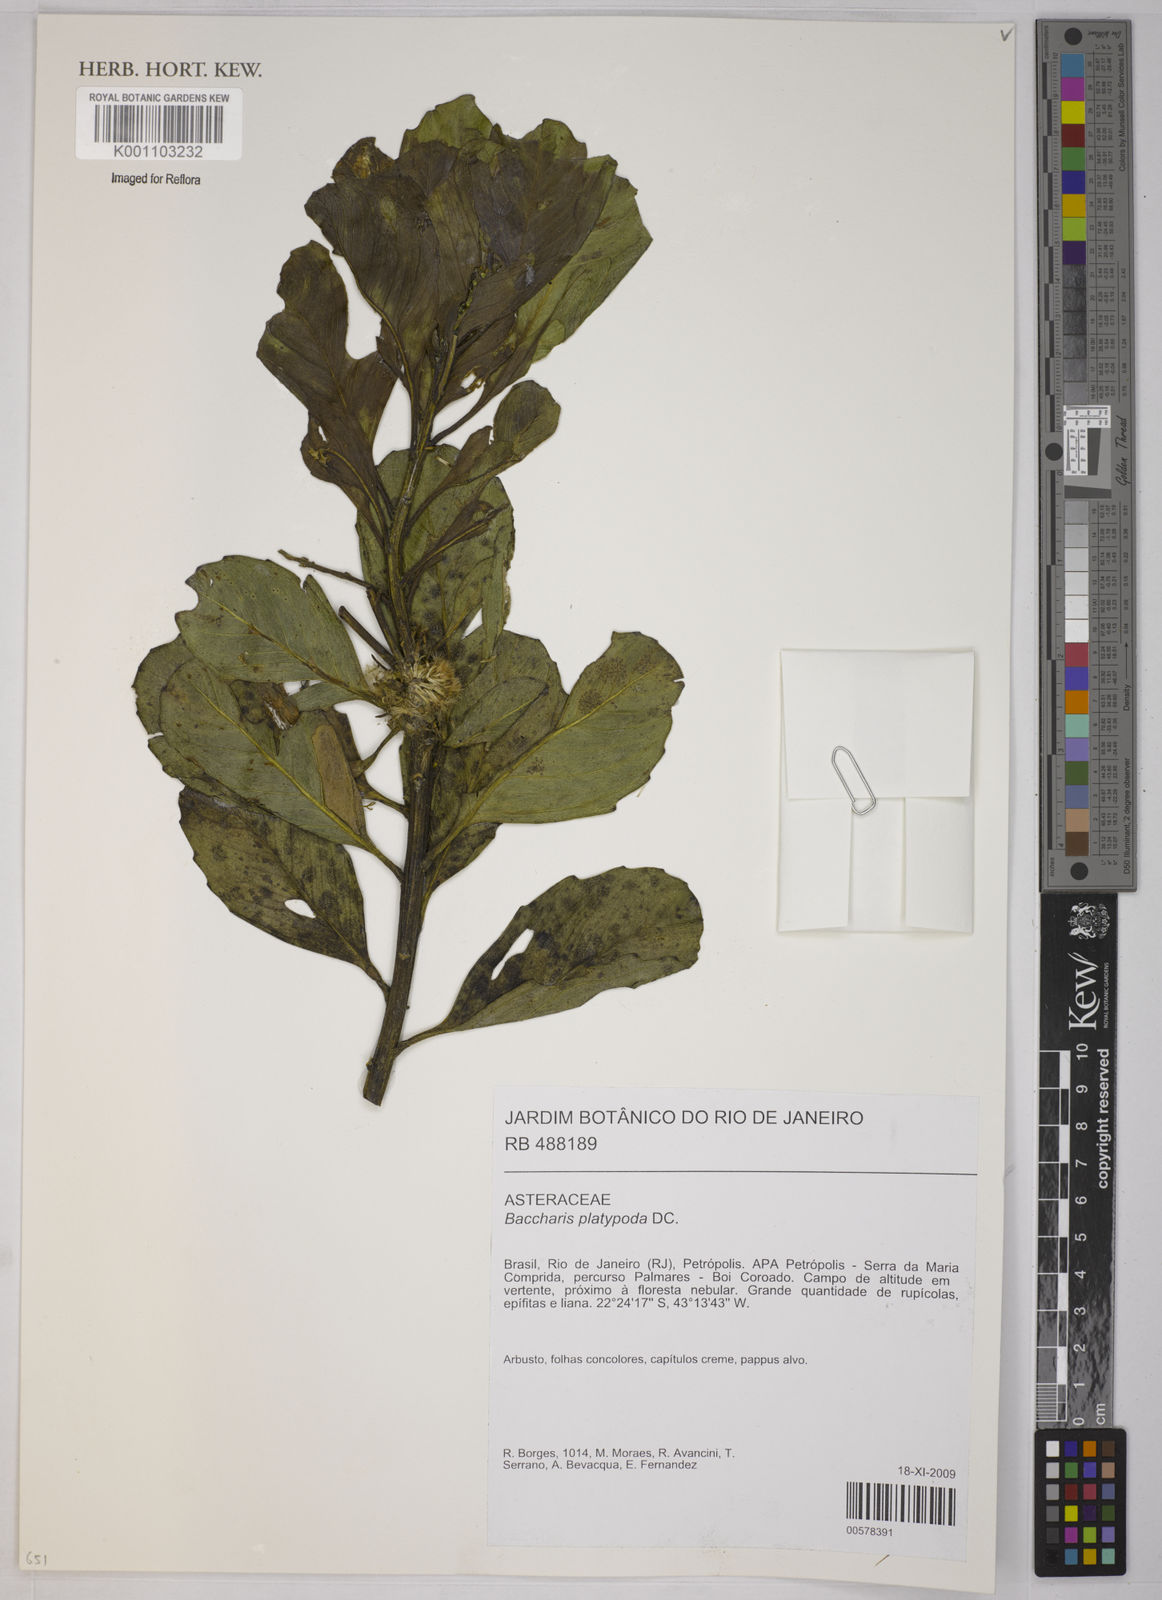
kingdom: Plantae
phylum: Tracheophyta
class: Magnoliopsida
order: Asterales
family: Asteraceae
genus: Baccharis
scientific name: Baccharis platypoda
